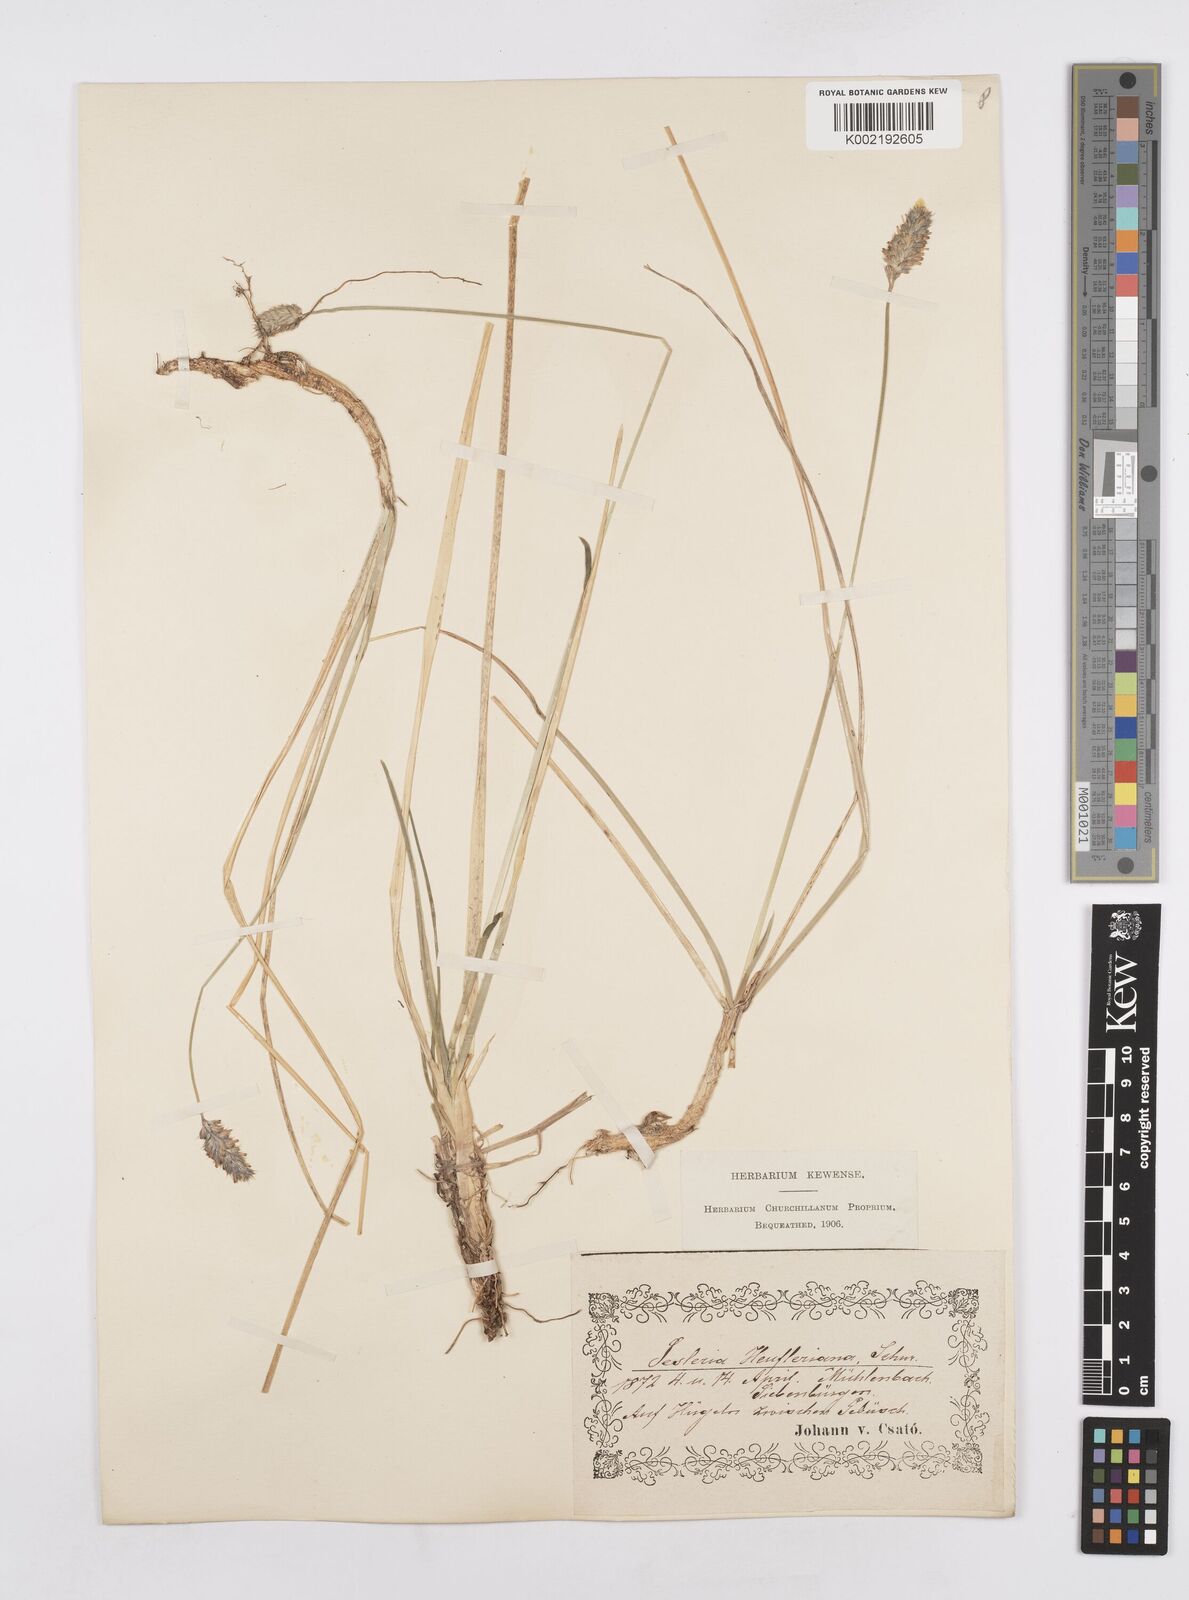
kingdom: Plantae
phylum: Tracheophyta
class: Liliopsida
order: Poales
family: Poaceae
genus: Sesleria
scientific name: Sesleria heufleriana
